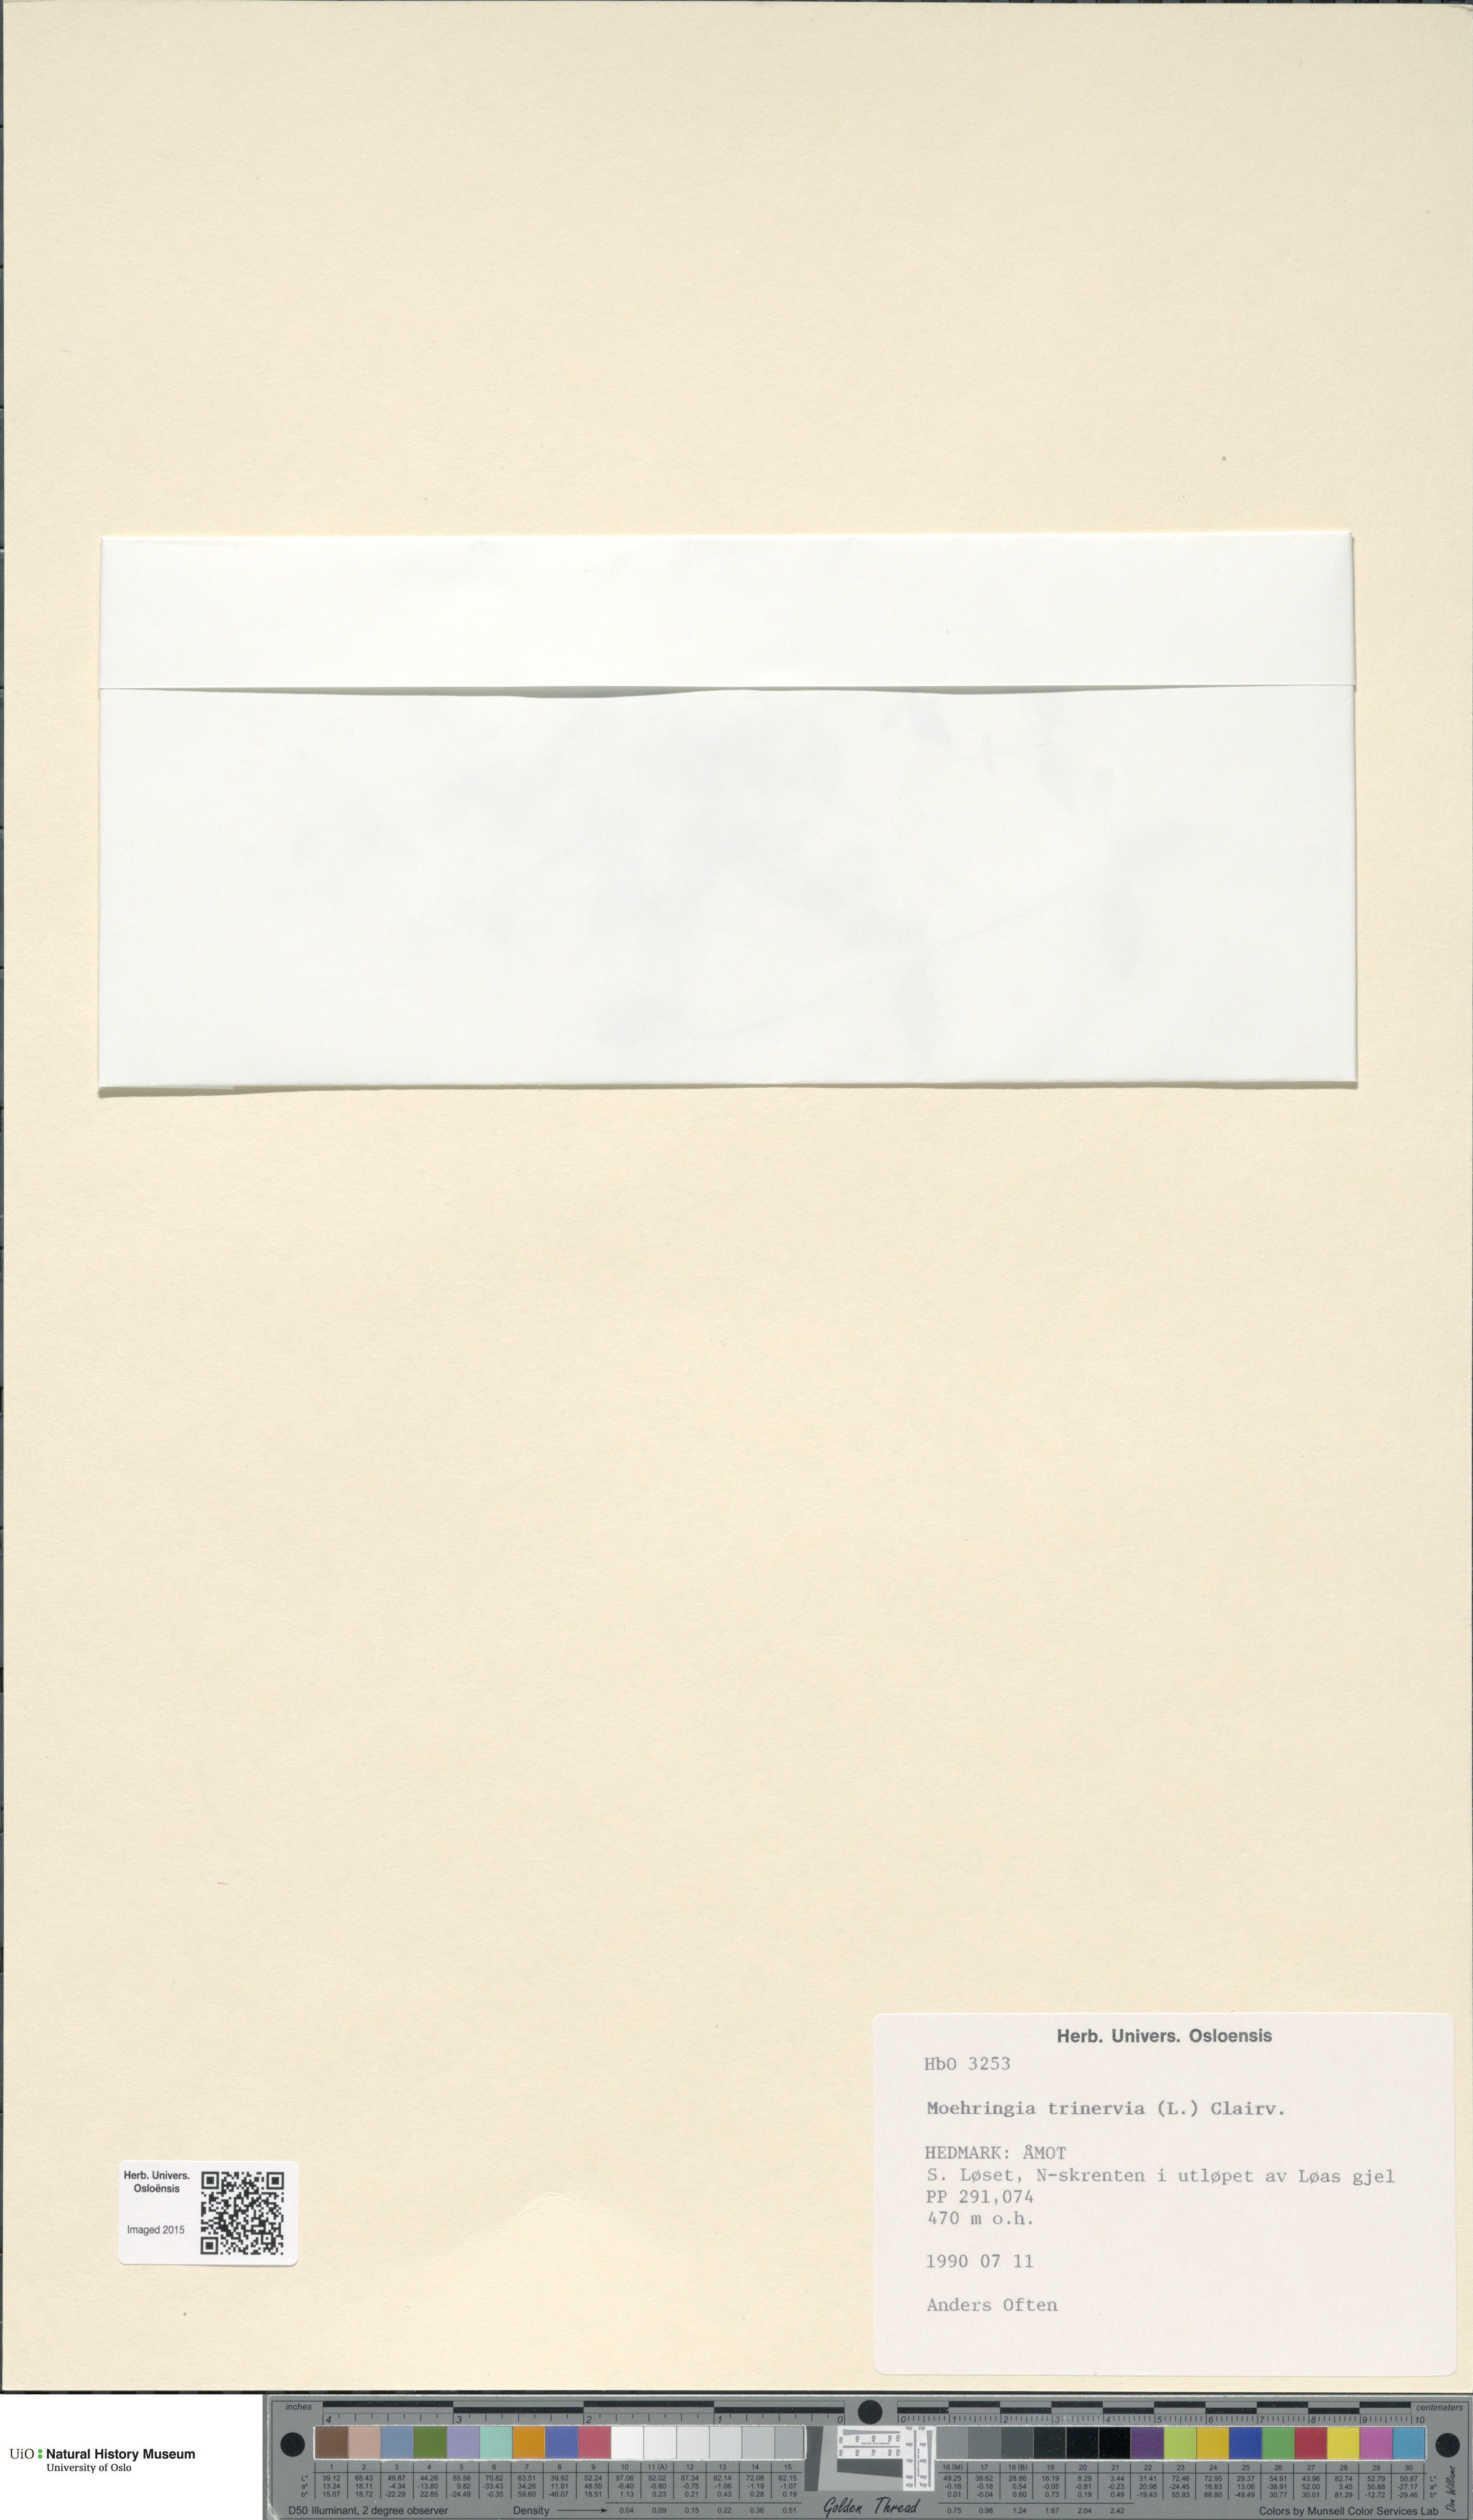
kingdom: Plantae
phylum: Tracheophyta
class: Magnoliopsida
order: Caryophyllales
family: Caryophyllaceae
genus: Moehringia
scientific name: Moehringia trinervia
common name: Three-nerved sandwort
